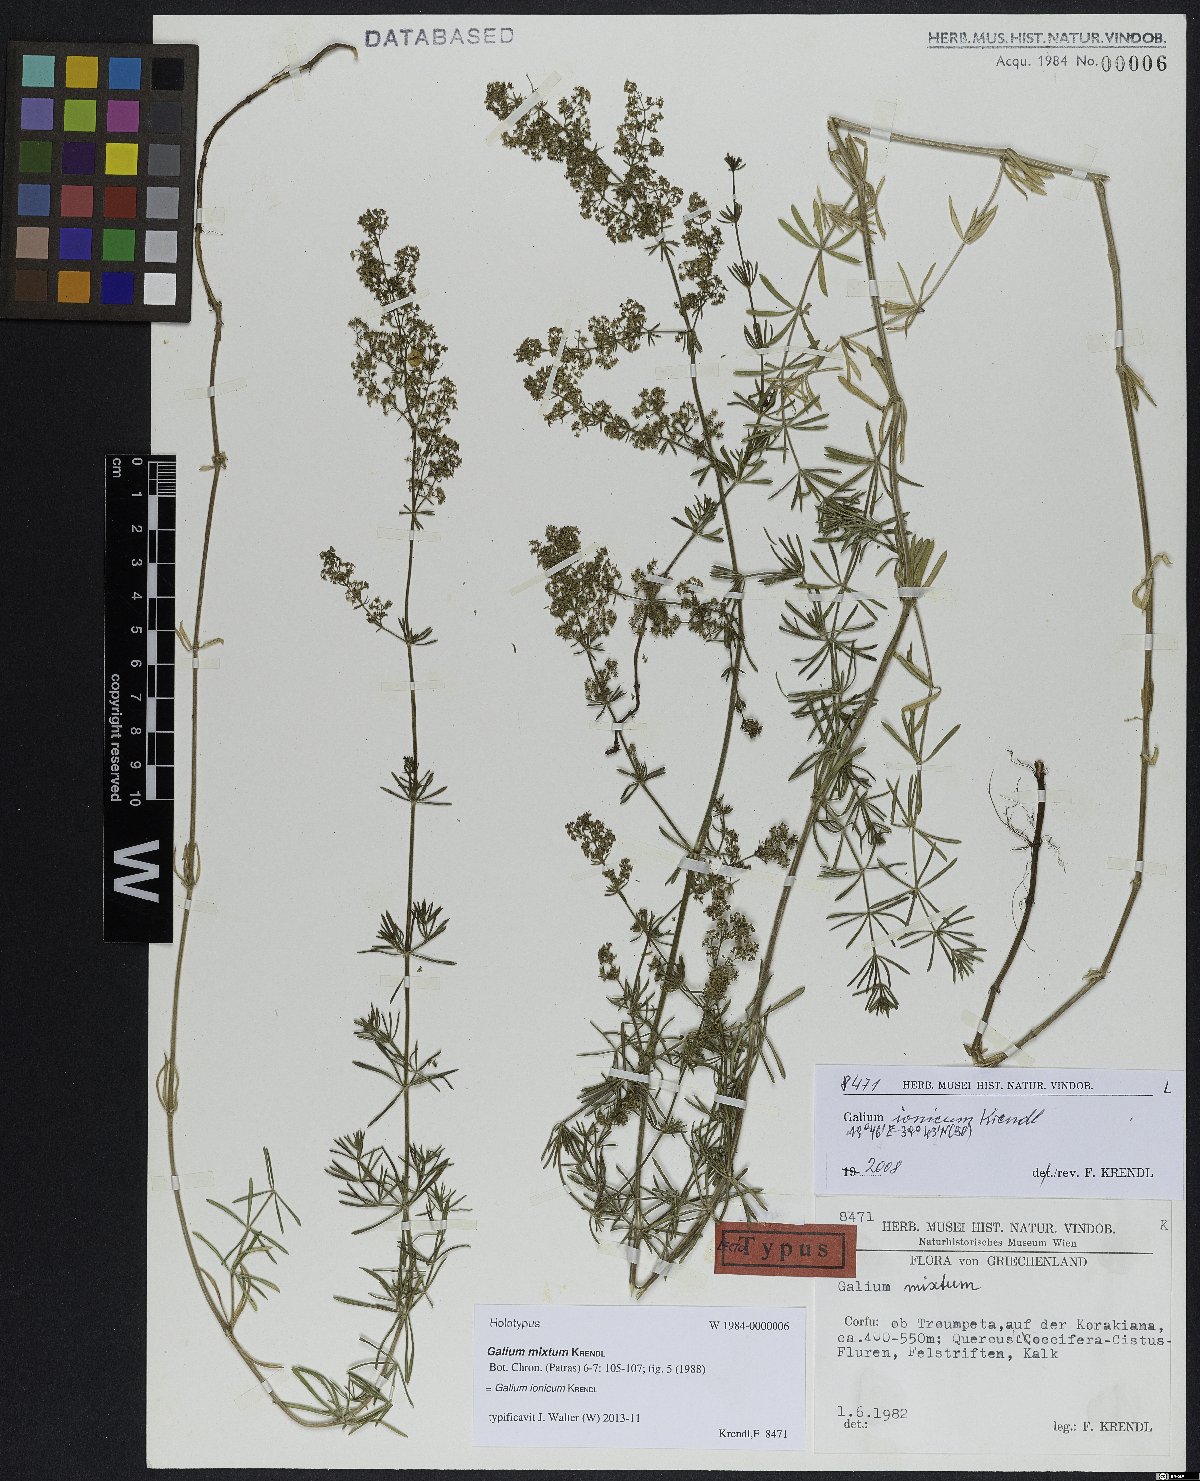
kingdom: Plantae
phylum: Tracheophyta
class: Magnoliopsida
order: Gentianales
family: Rubiaceae
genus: Galium
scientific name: Galium ionicum
